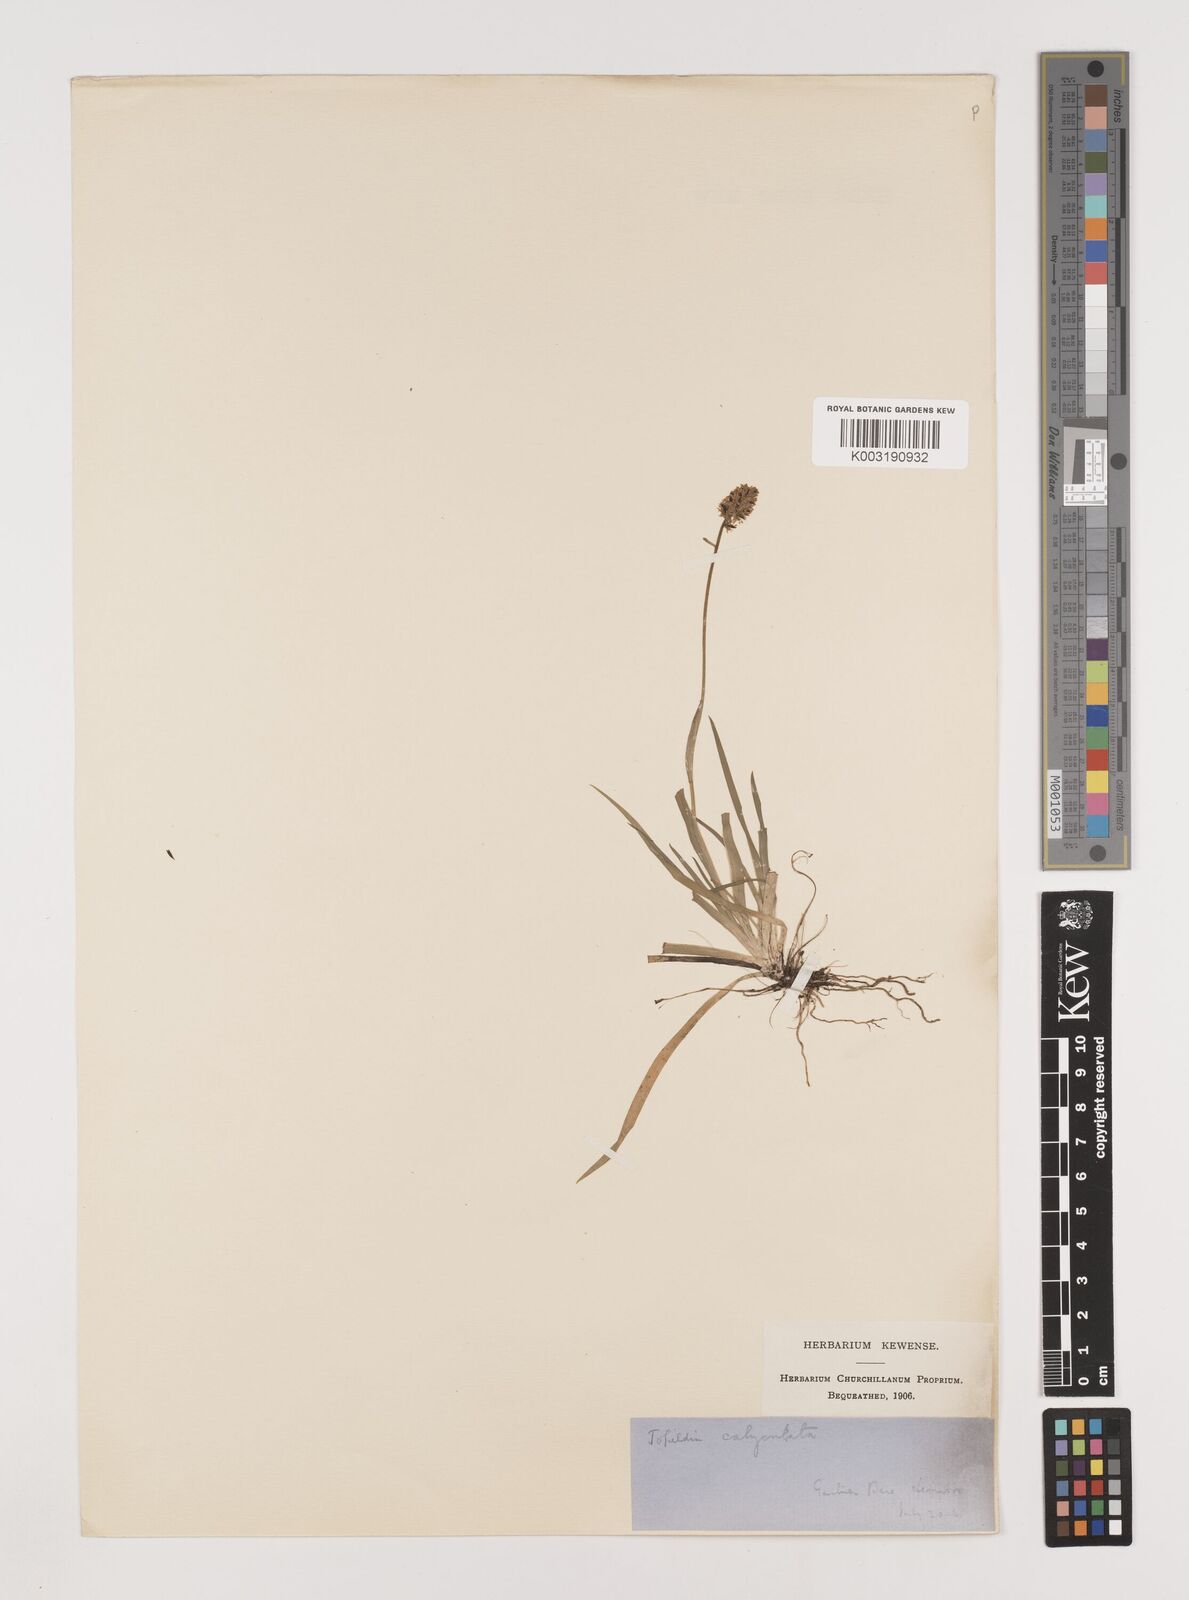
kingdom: Plantae
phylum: Tracheophyta
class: Liliopsida
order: Alismatales
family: Tofieldiaceae
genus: Tofieldia
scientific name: Tofieldia calyculata
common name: German-asphodel
